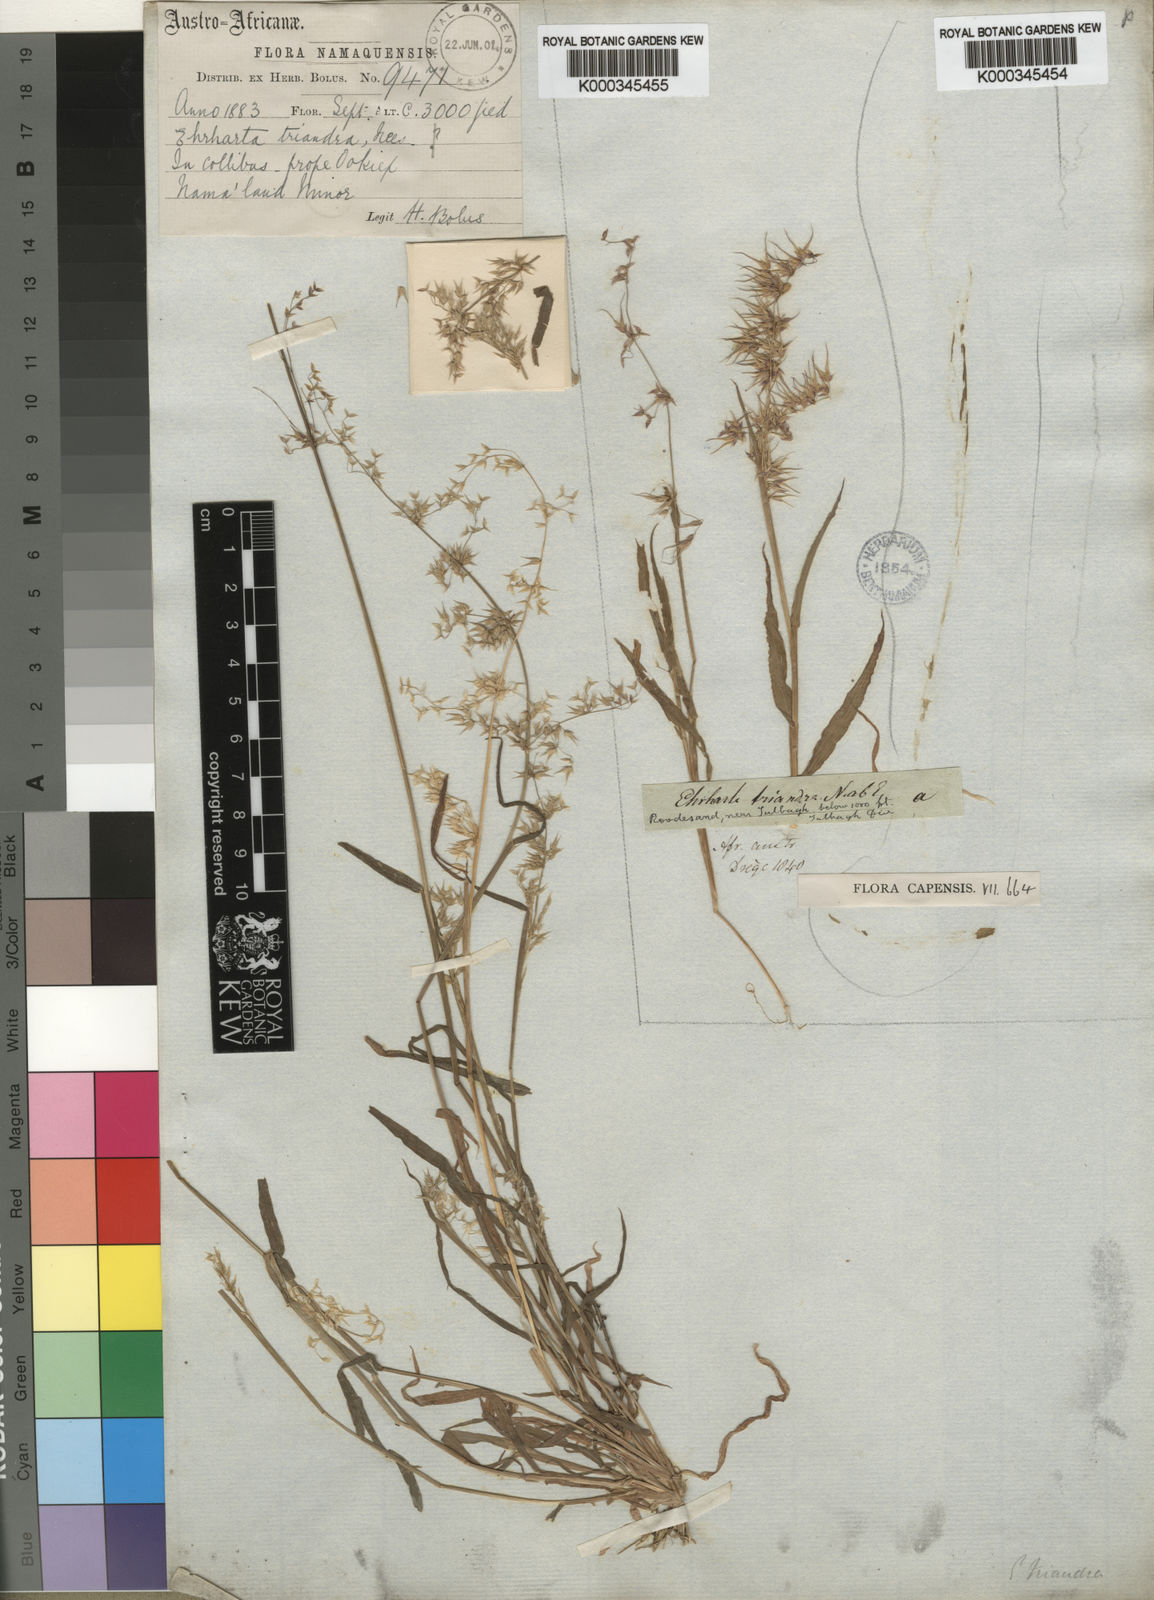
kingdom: Plantae
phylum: Tracheophyta
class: Liliopsida
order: Poales
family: Poaceae
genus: Ehrharta
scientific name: Ehrharta
